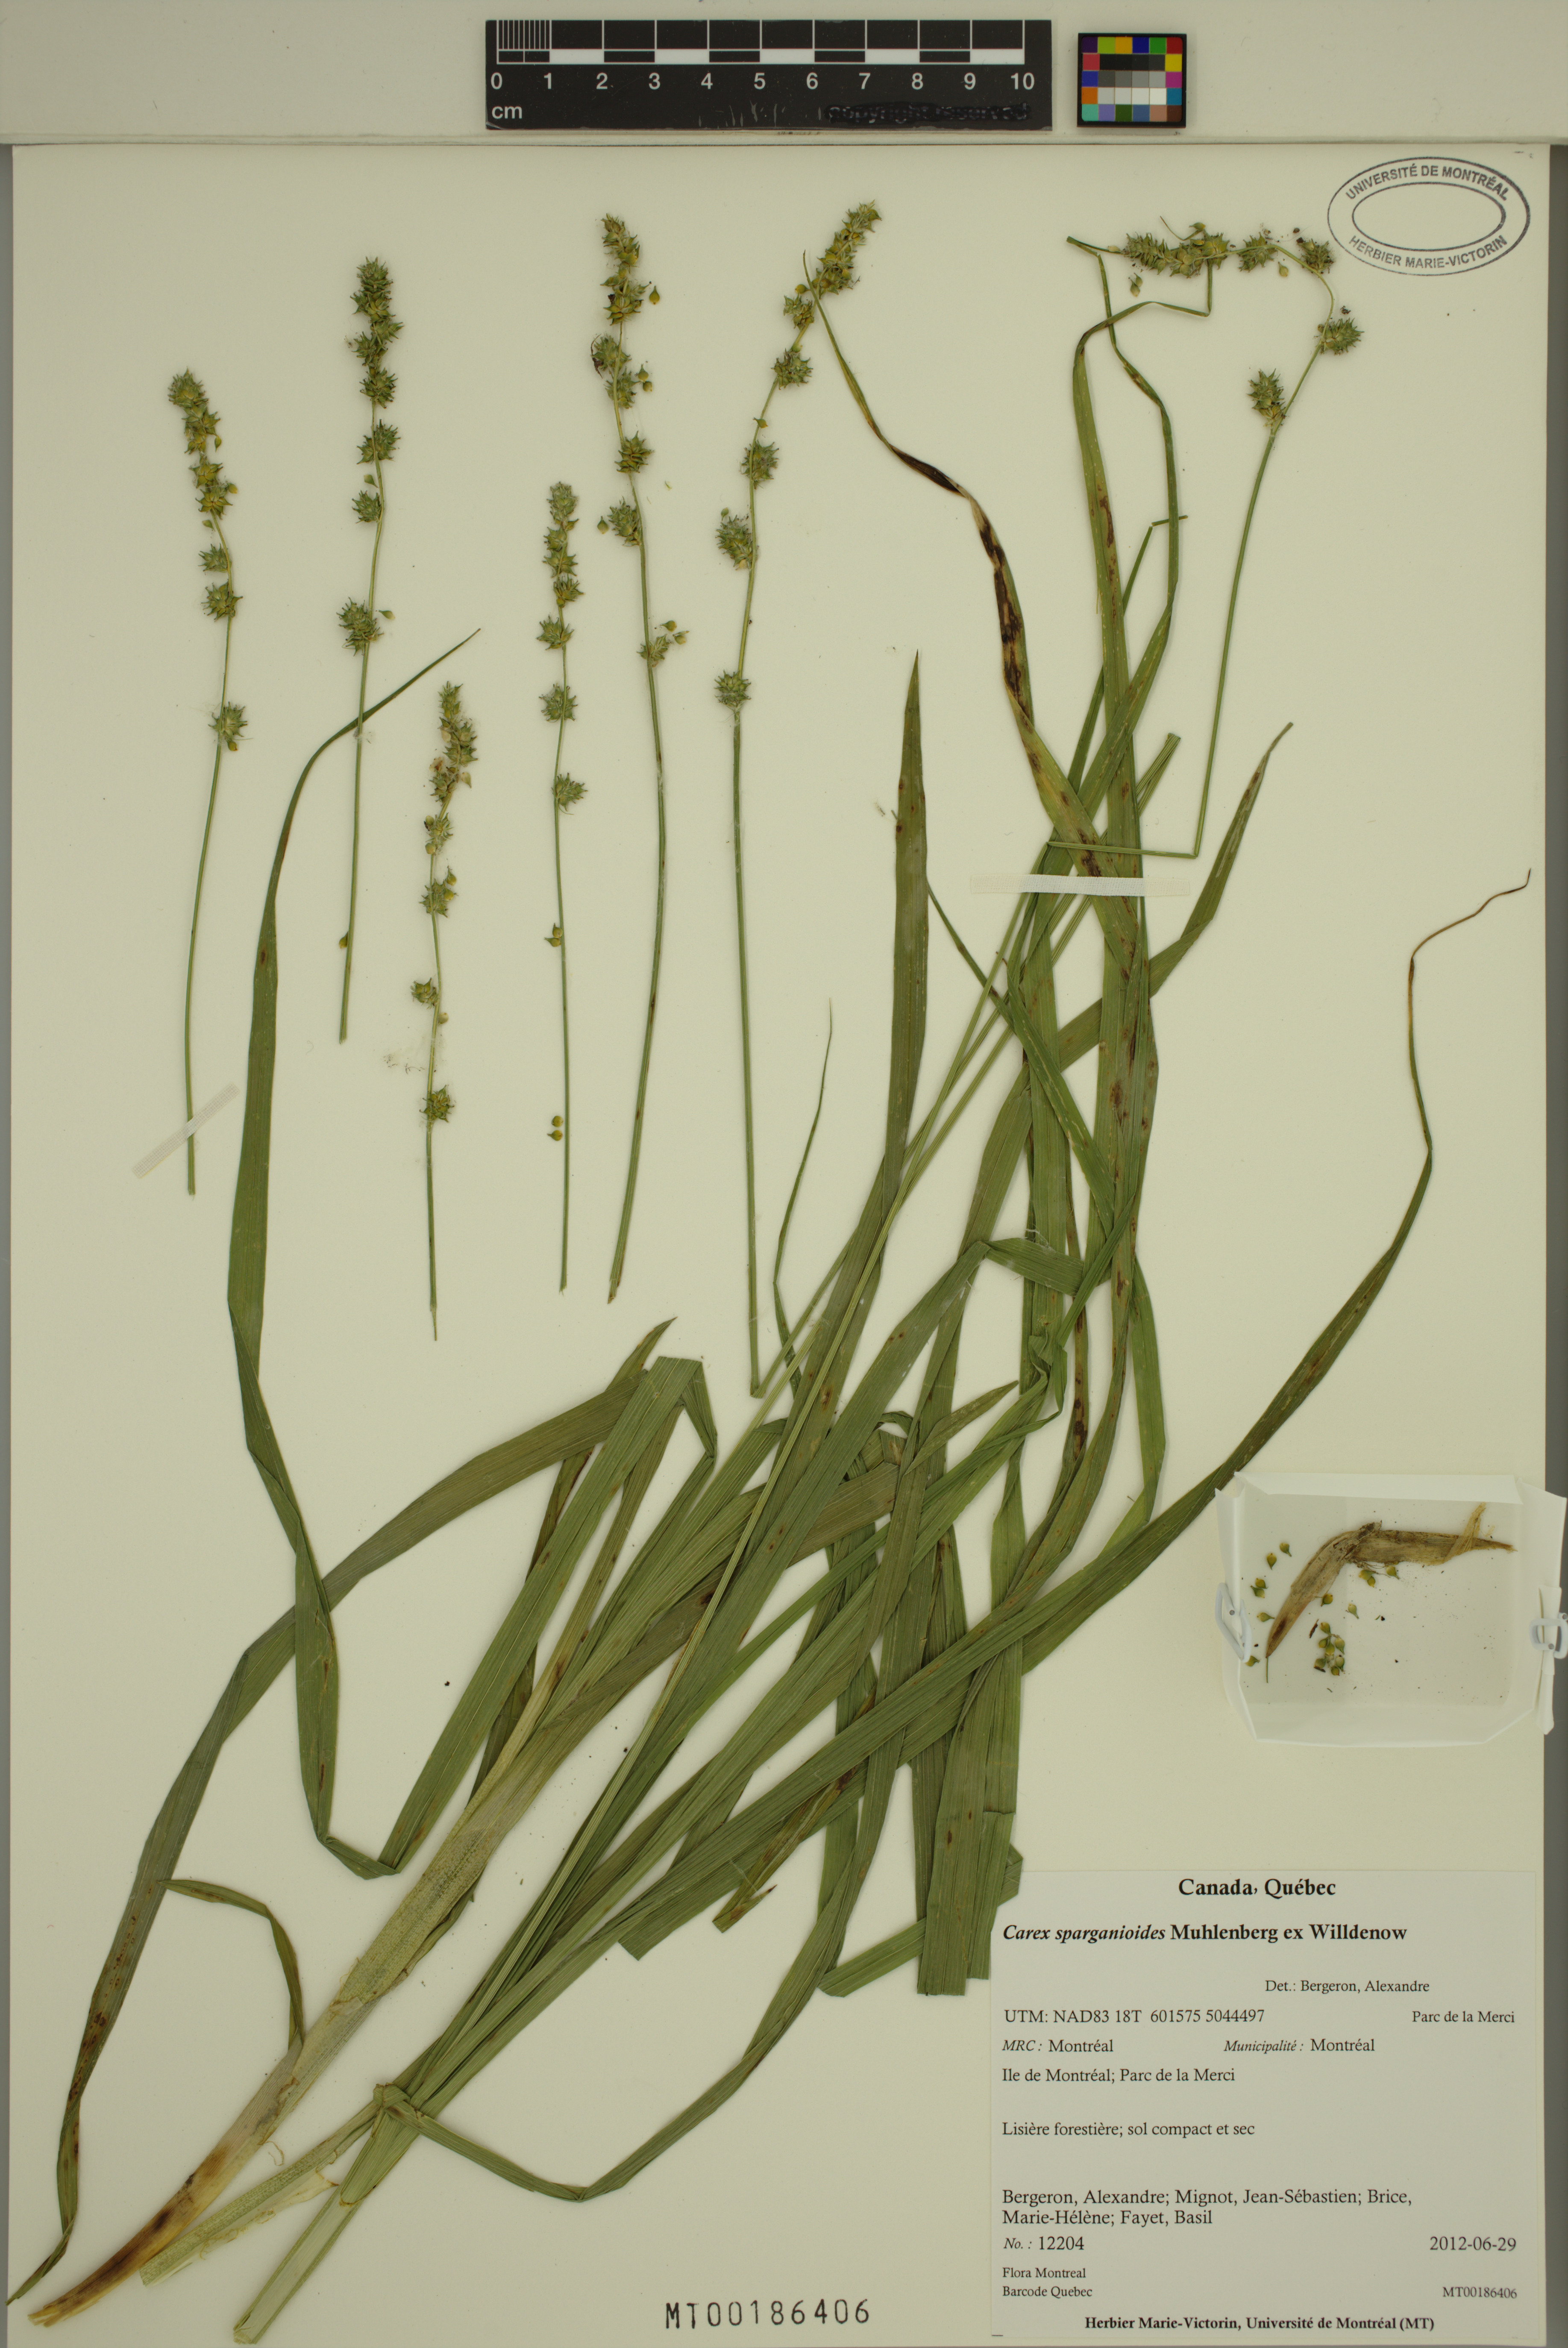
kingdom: Plantae
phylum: Tracheophyta
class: Liliopsida
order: Poales
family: Cyperaceae
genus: Carex
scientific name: Carex sparganioides
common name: Burreed sedge
